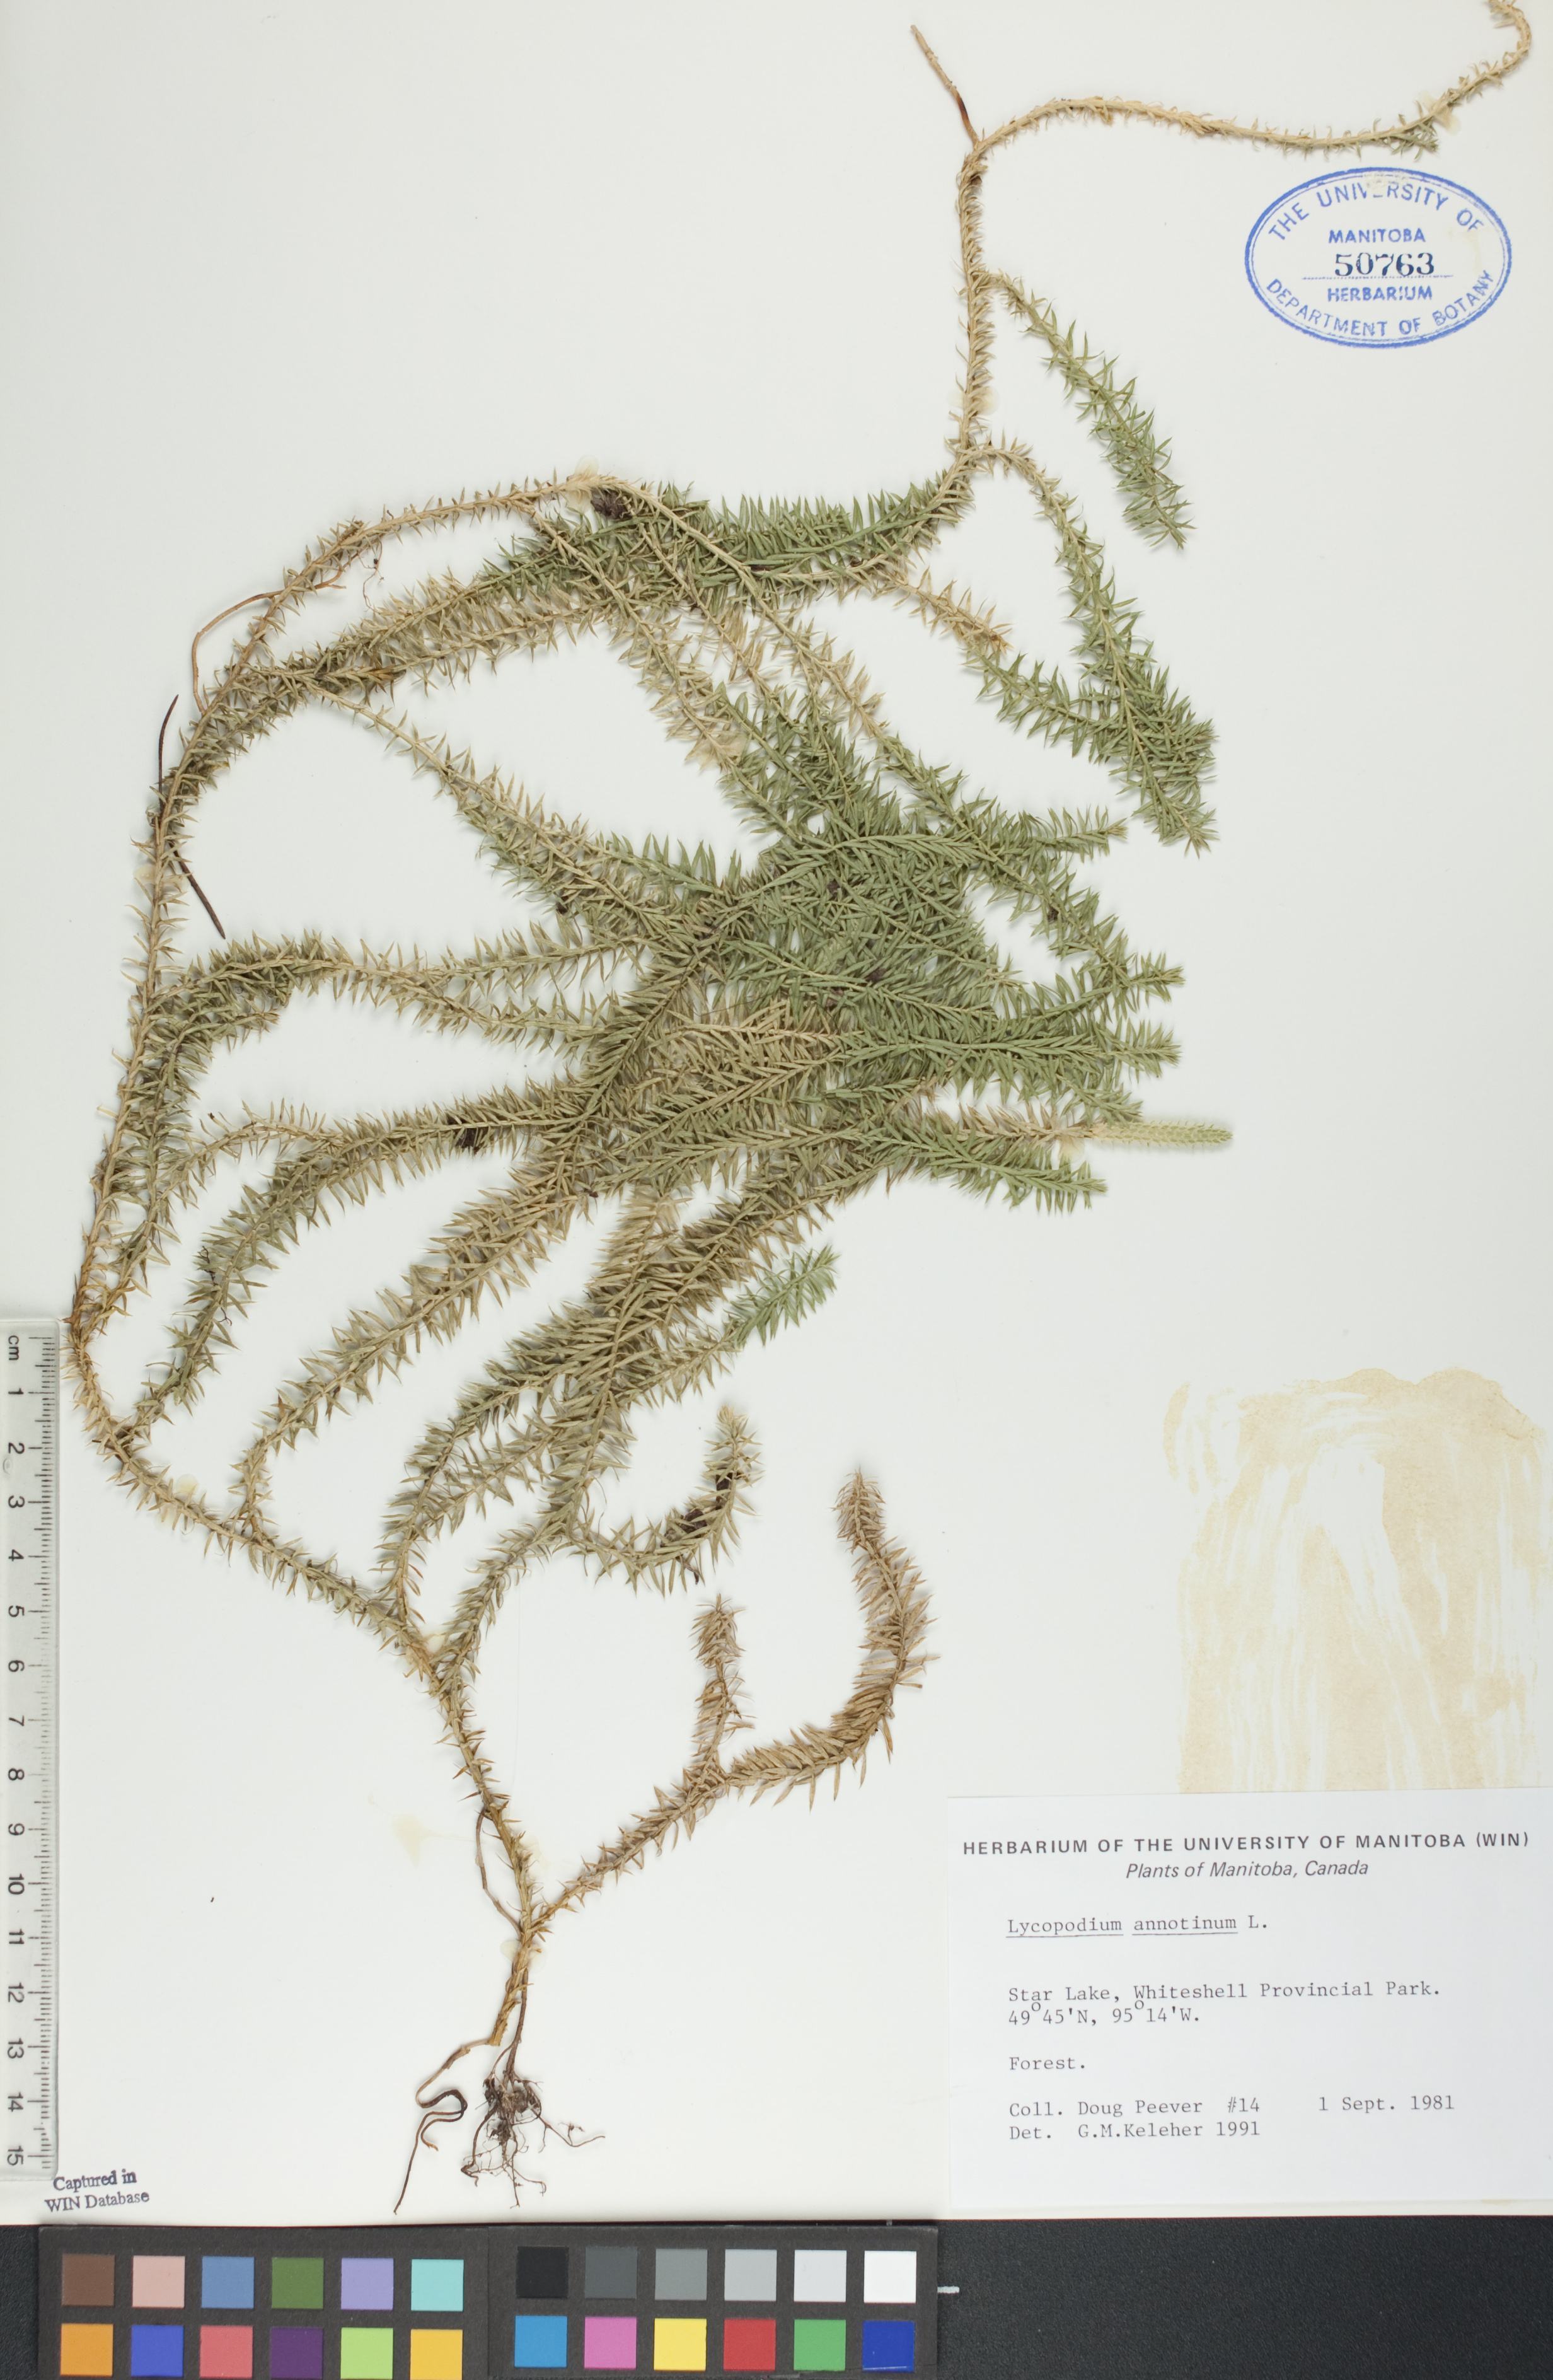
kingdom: Plantae
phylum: Tracheophyta
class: Lycopodiopsida
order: Lycopodiales
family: Lycopodiaceae
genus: Spinulum
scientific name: Spinulum annotinum
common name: Interrupted club-moss
